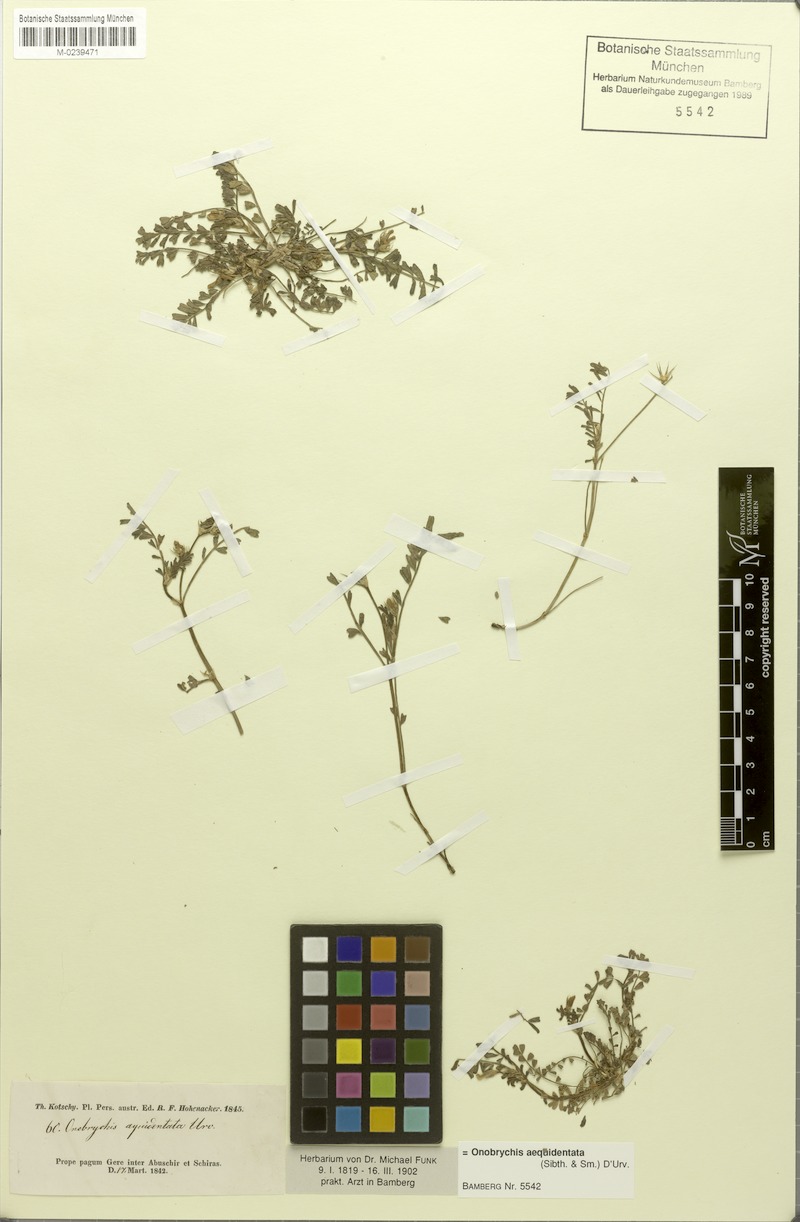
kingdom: Plantae
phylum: Tracheophyta
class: Magnoliopsida
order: Fabales
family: Fabaceae
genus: Onobrychis
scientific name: Onobrychis aequidentata
